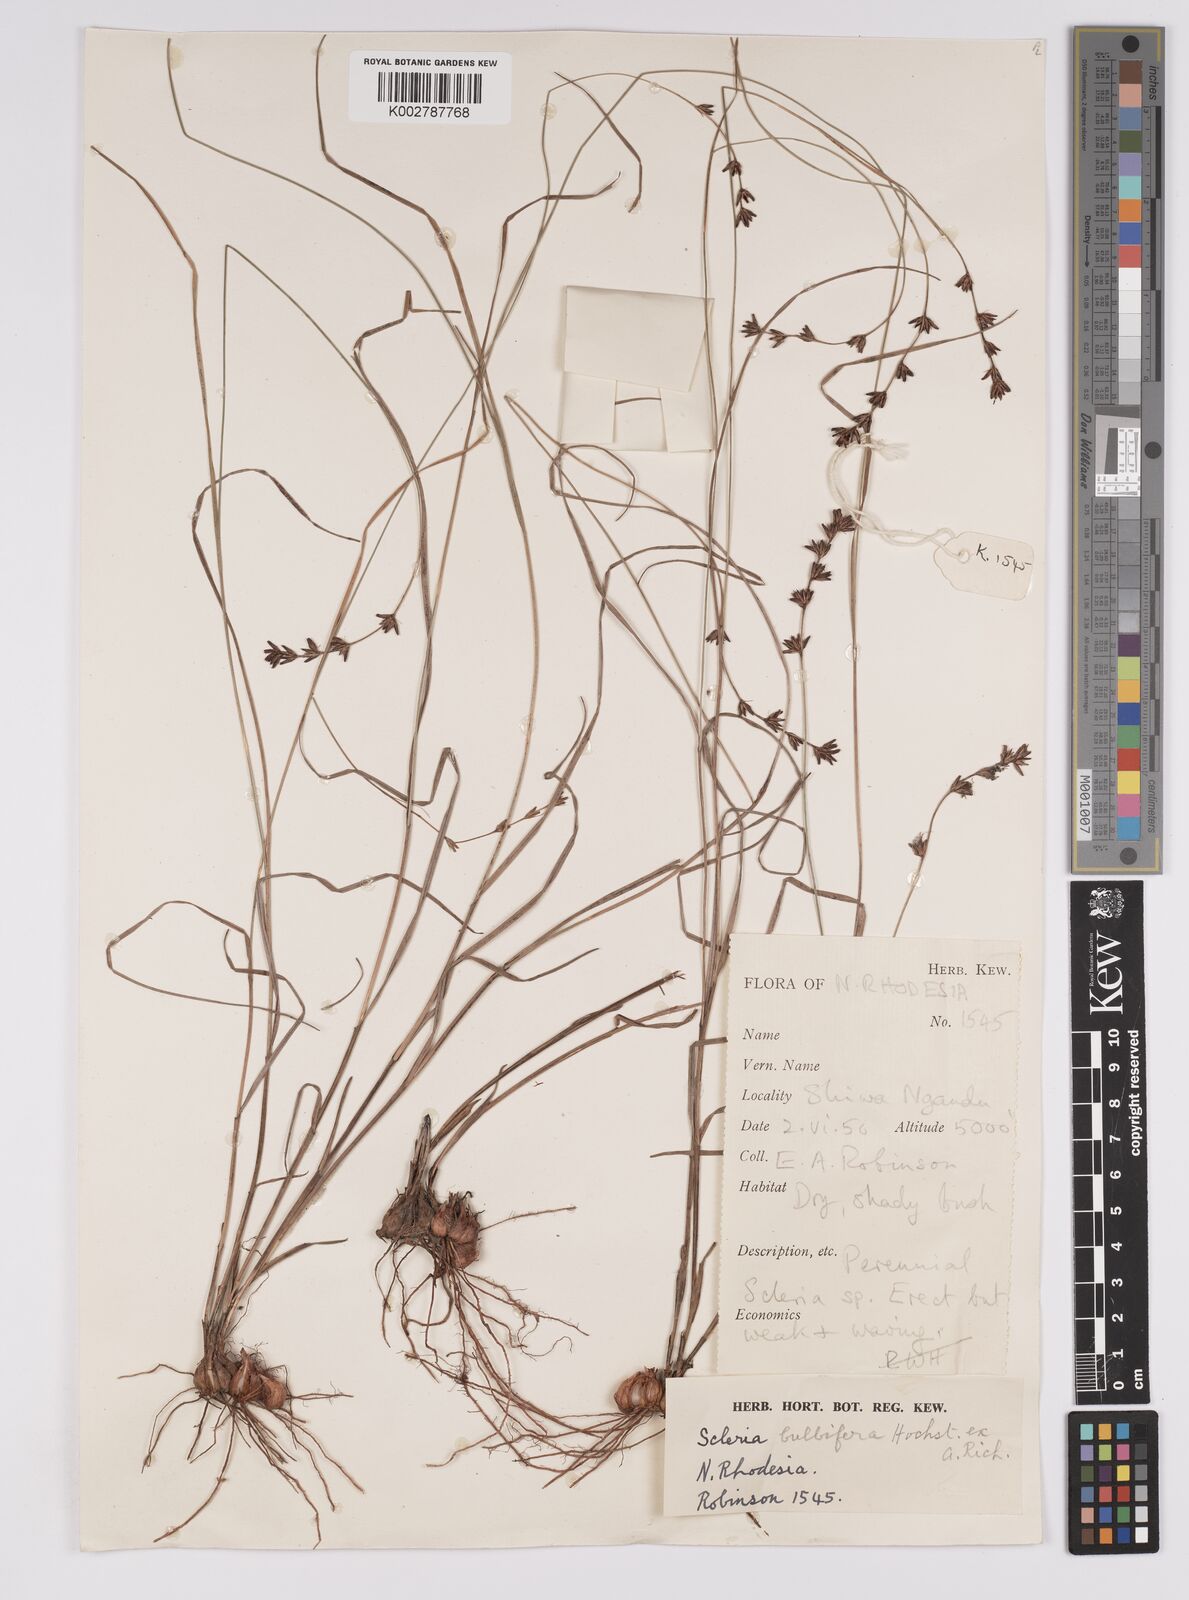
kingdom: Plantae
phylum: Tracheophyta
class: Liliopsida
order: Poales
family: Cyperaceae
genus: Scleria
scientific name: Scleria bulbifera
